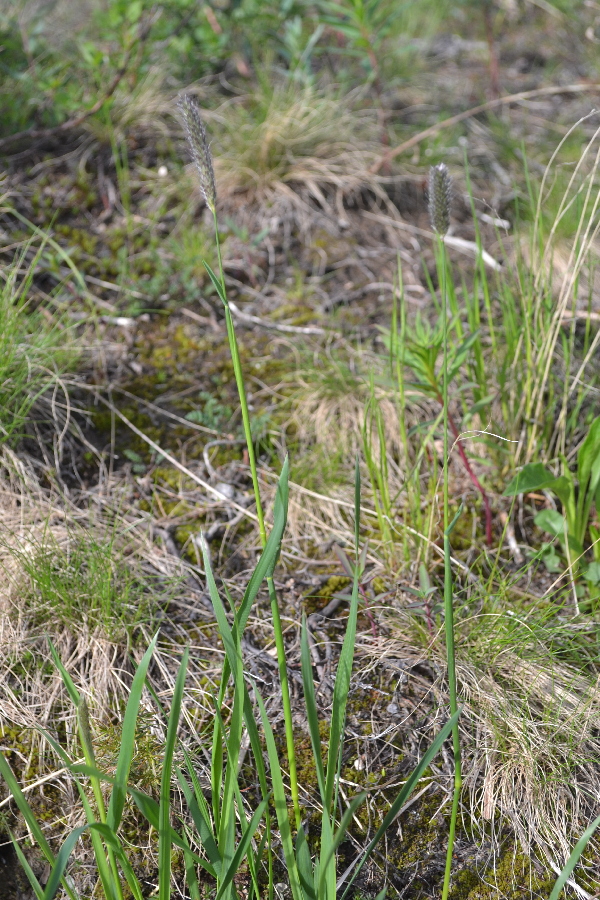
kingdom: Plantae
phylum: Tracheophyta
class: Liliopsida
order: Poales
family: Poaceae
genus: Alopecurus
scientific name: Alopecurus pratensis
